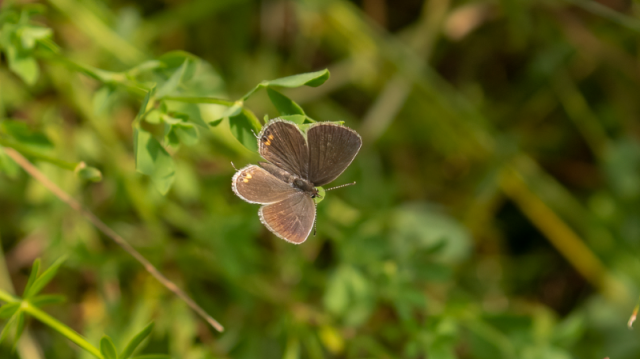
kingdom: Animalia
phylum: Arthropoda
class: Insecta
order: Lepidoptera
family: Lycaenidae
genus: Elkalyce
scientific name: Elkalyce comyntas
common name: Eastern Tailed-Blue
